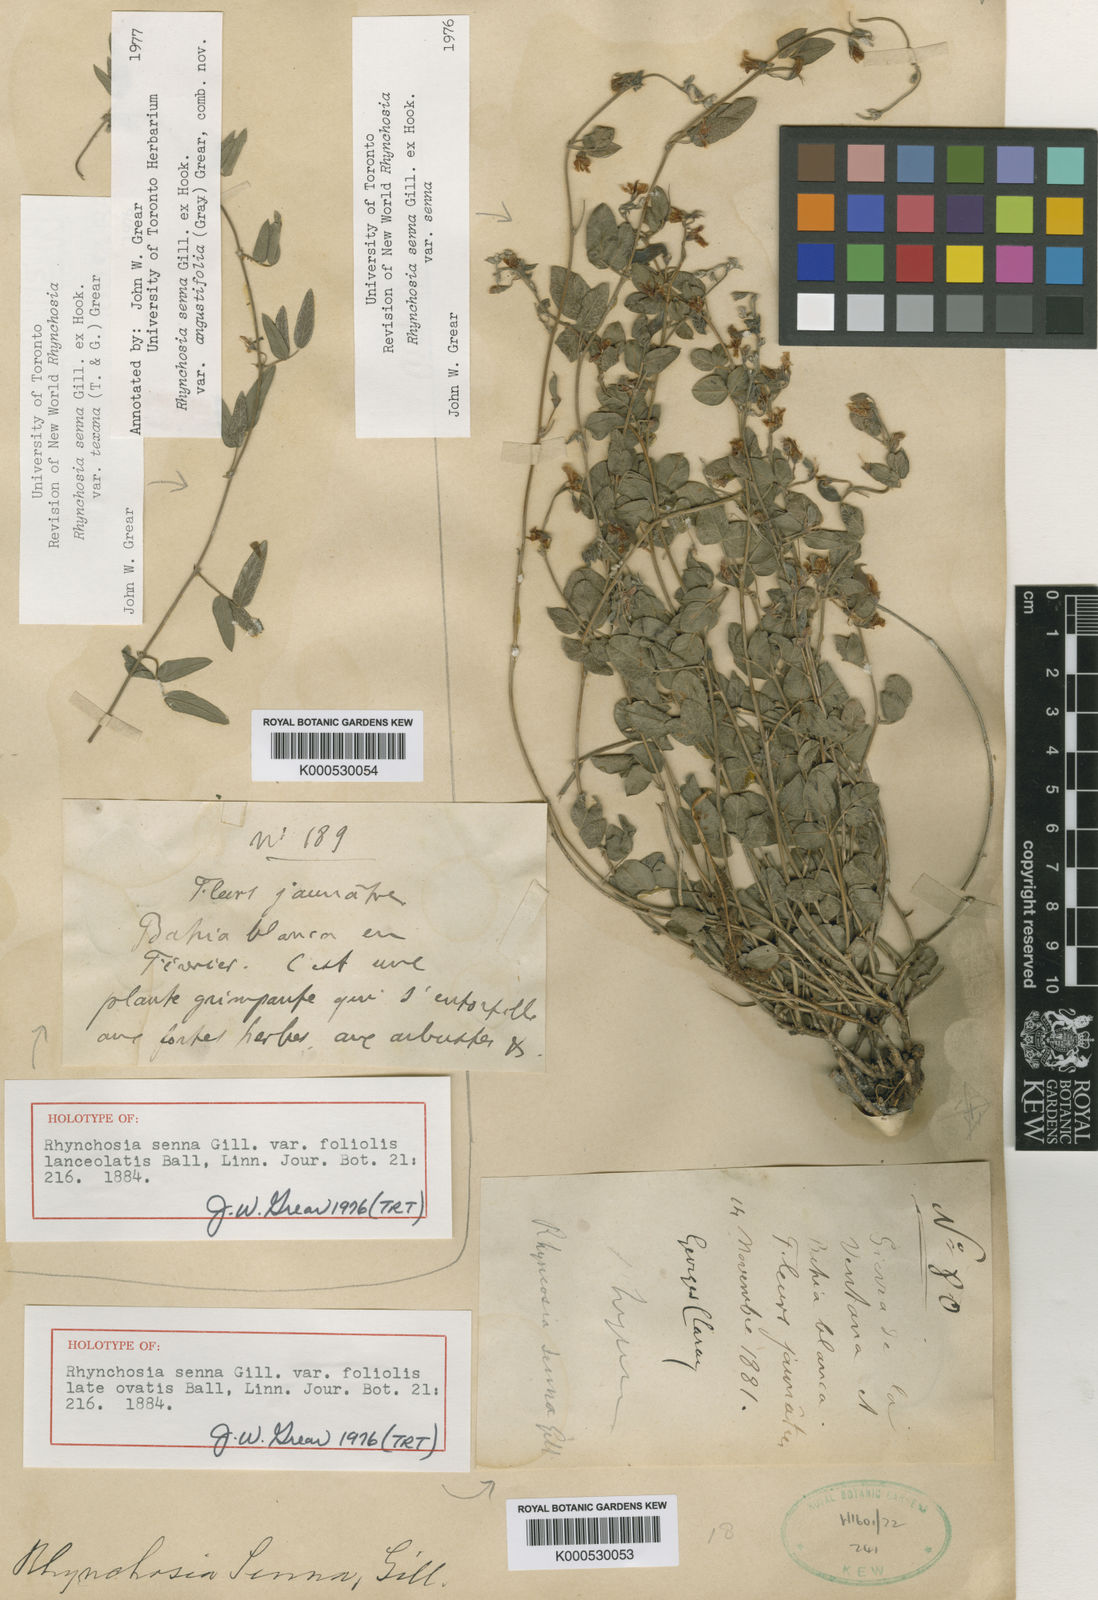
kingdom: Plantae
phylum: Tracheophyta
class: Magnoliopsida
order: Fabales
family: Fabaceae
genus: Rhynchosia
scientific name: Rhynchosia senna
